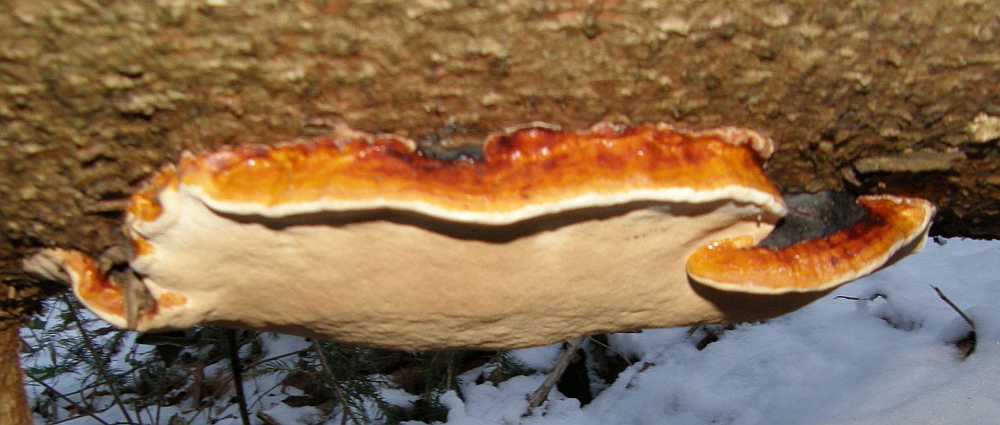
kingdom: Fungi
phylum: Basidiomycota
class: Agaricomycetes
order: Polyporales
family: Fomitopsidaceae
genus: Fomitopsis
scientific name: Fomitopsis pinicola
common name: randbæltet hovporesvamp
